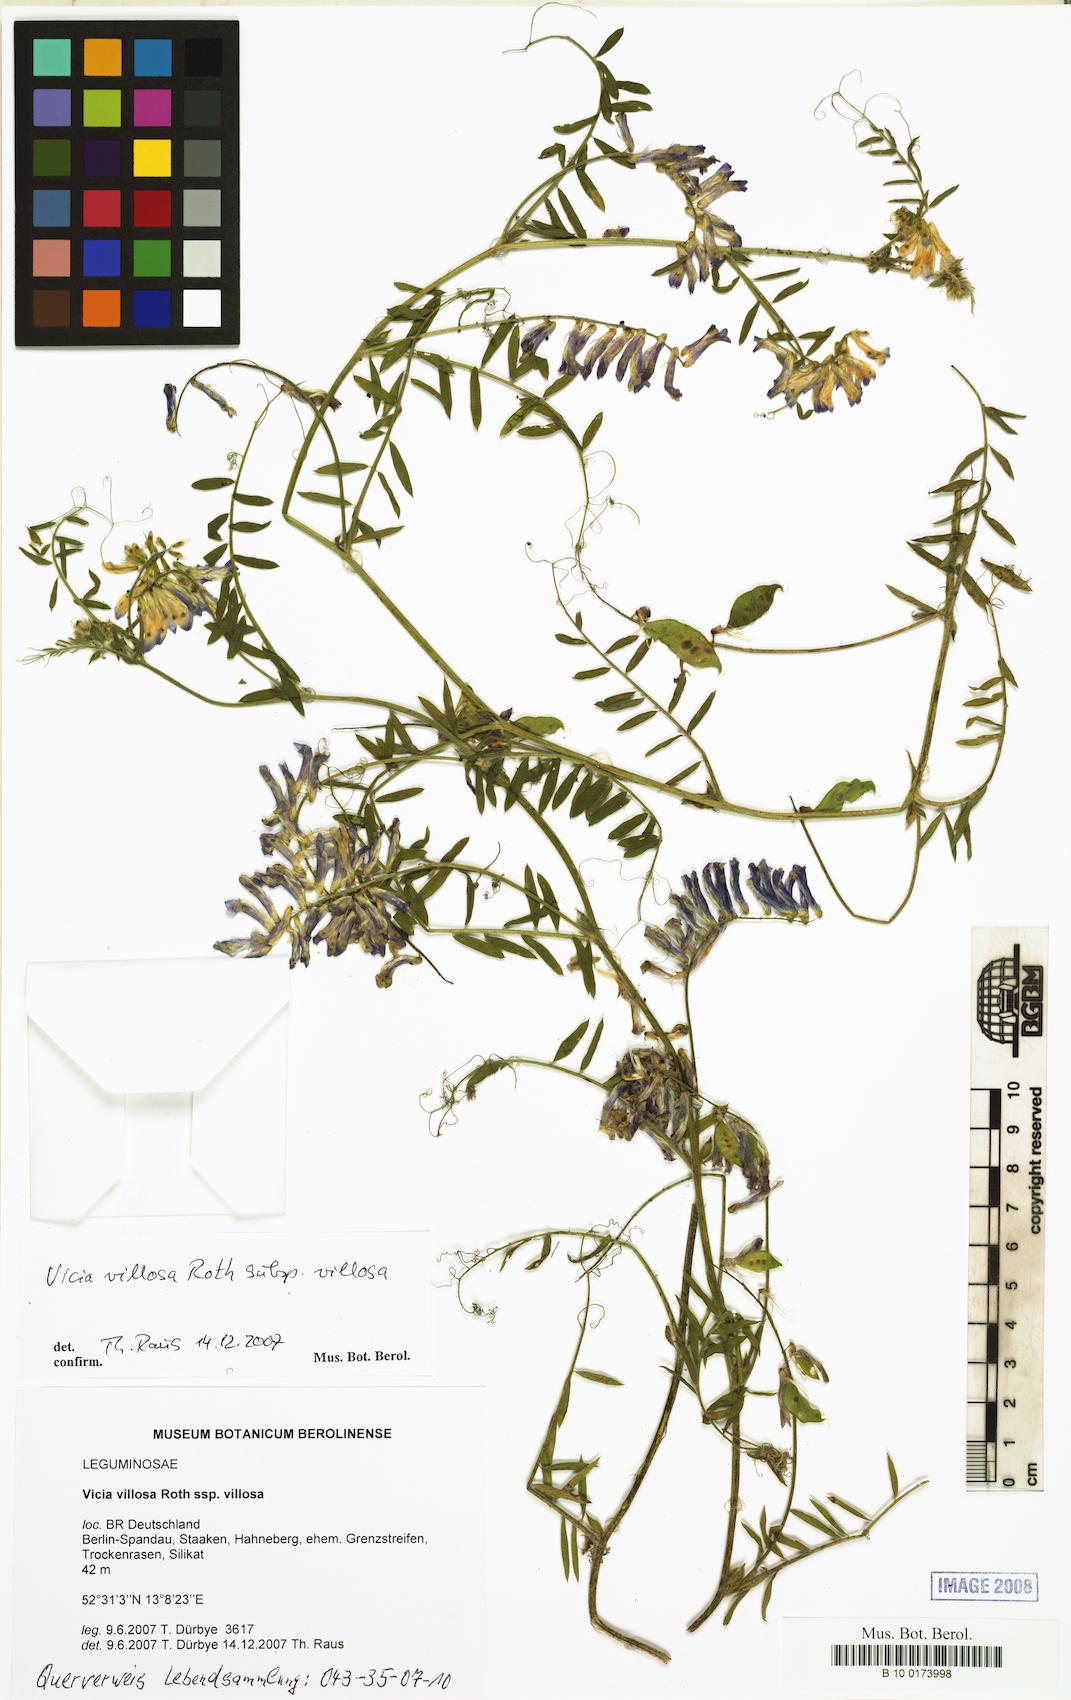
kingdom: Plantae
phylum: Tracheophyta
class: Magnoliopsida
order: Fabales
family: Fabaceae
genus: Vicia
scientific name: Vicia villosa
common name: Fodder vetch
